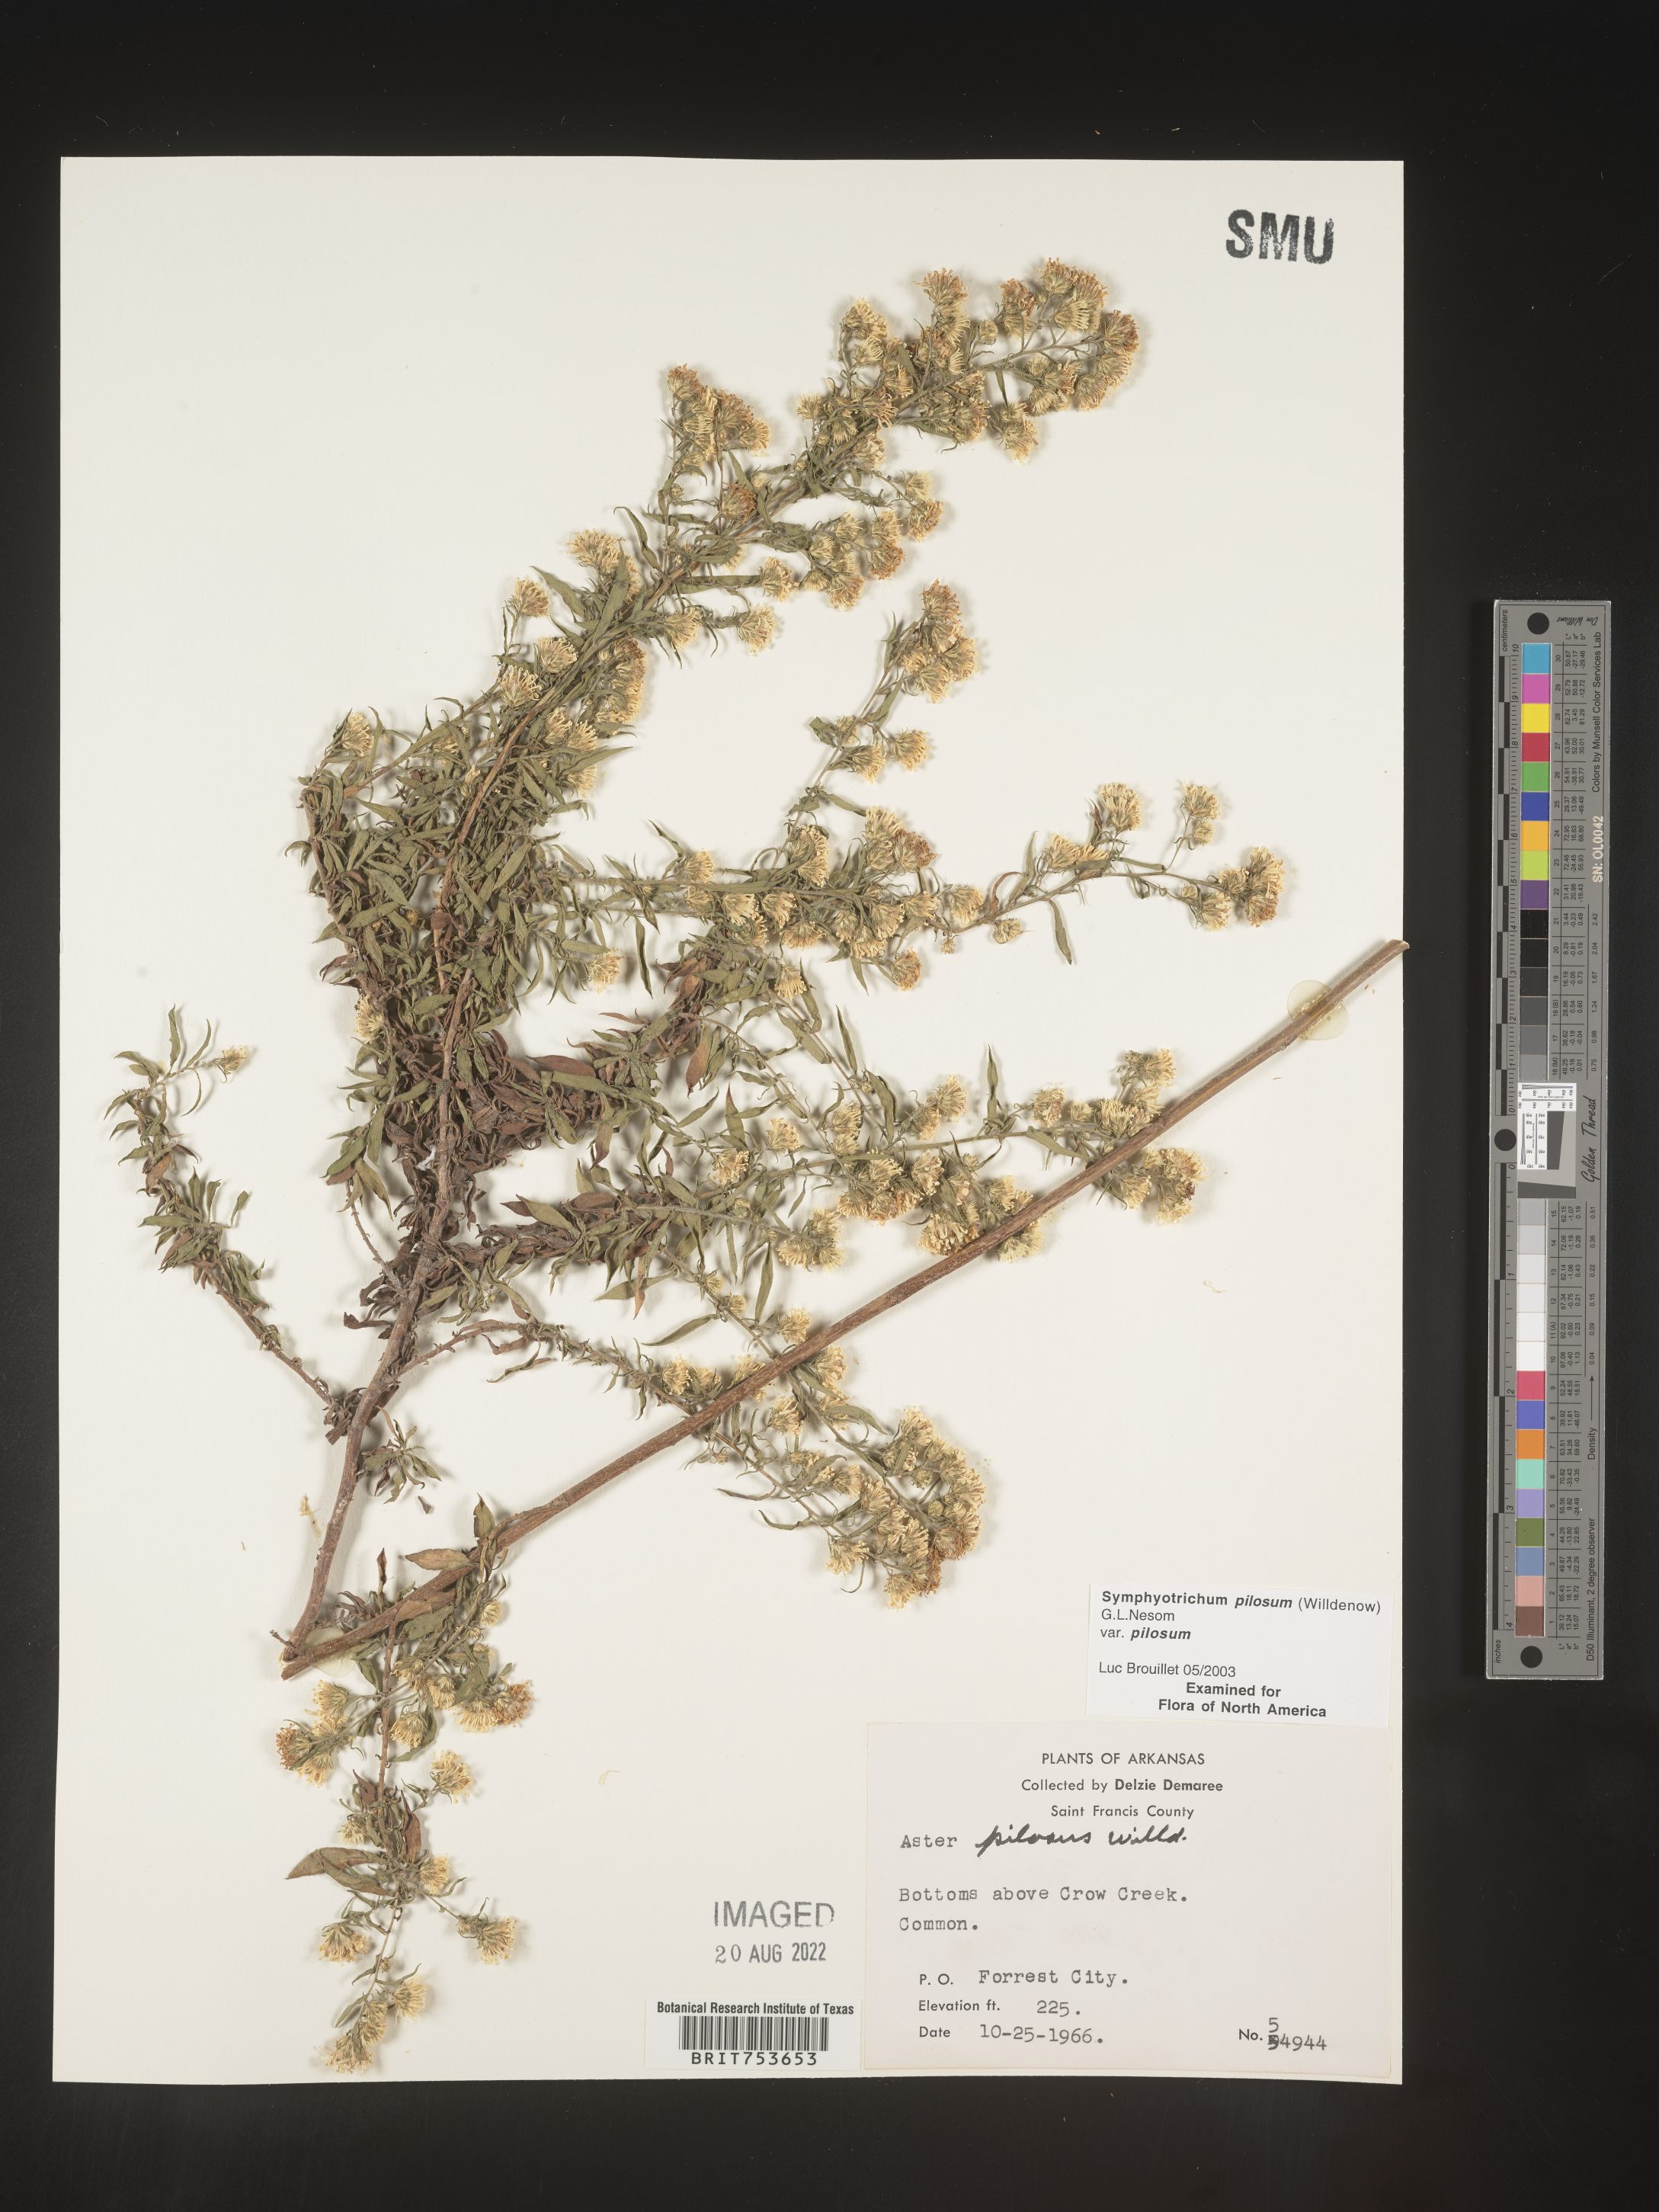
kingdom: Plantae
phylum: Tracheophyta
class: Magnoliopsida
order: Asterales
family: Asteraceae
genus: Symphyotrichum
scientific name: Symphyotrichum pilosum
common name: Awl aster
